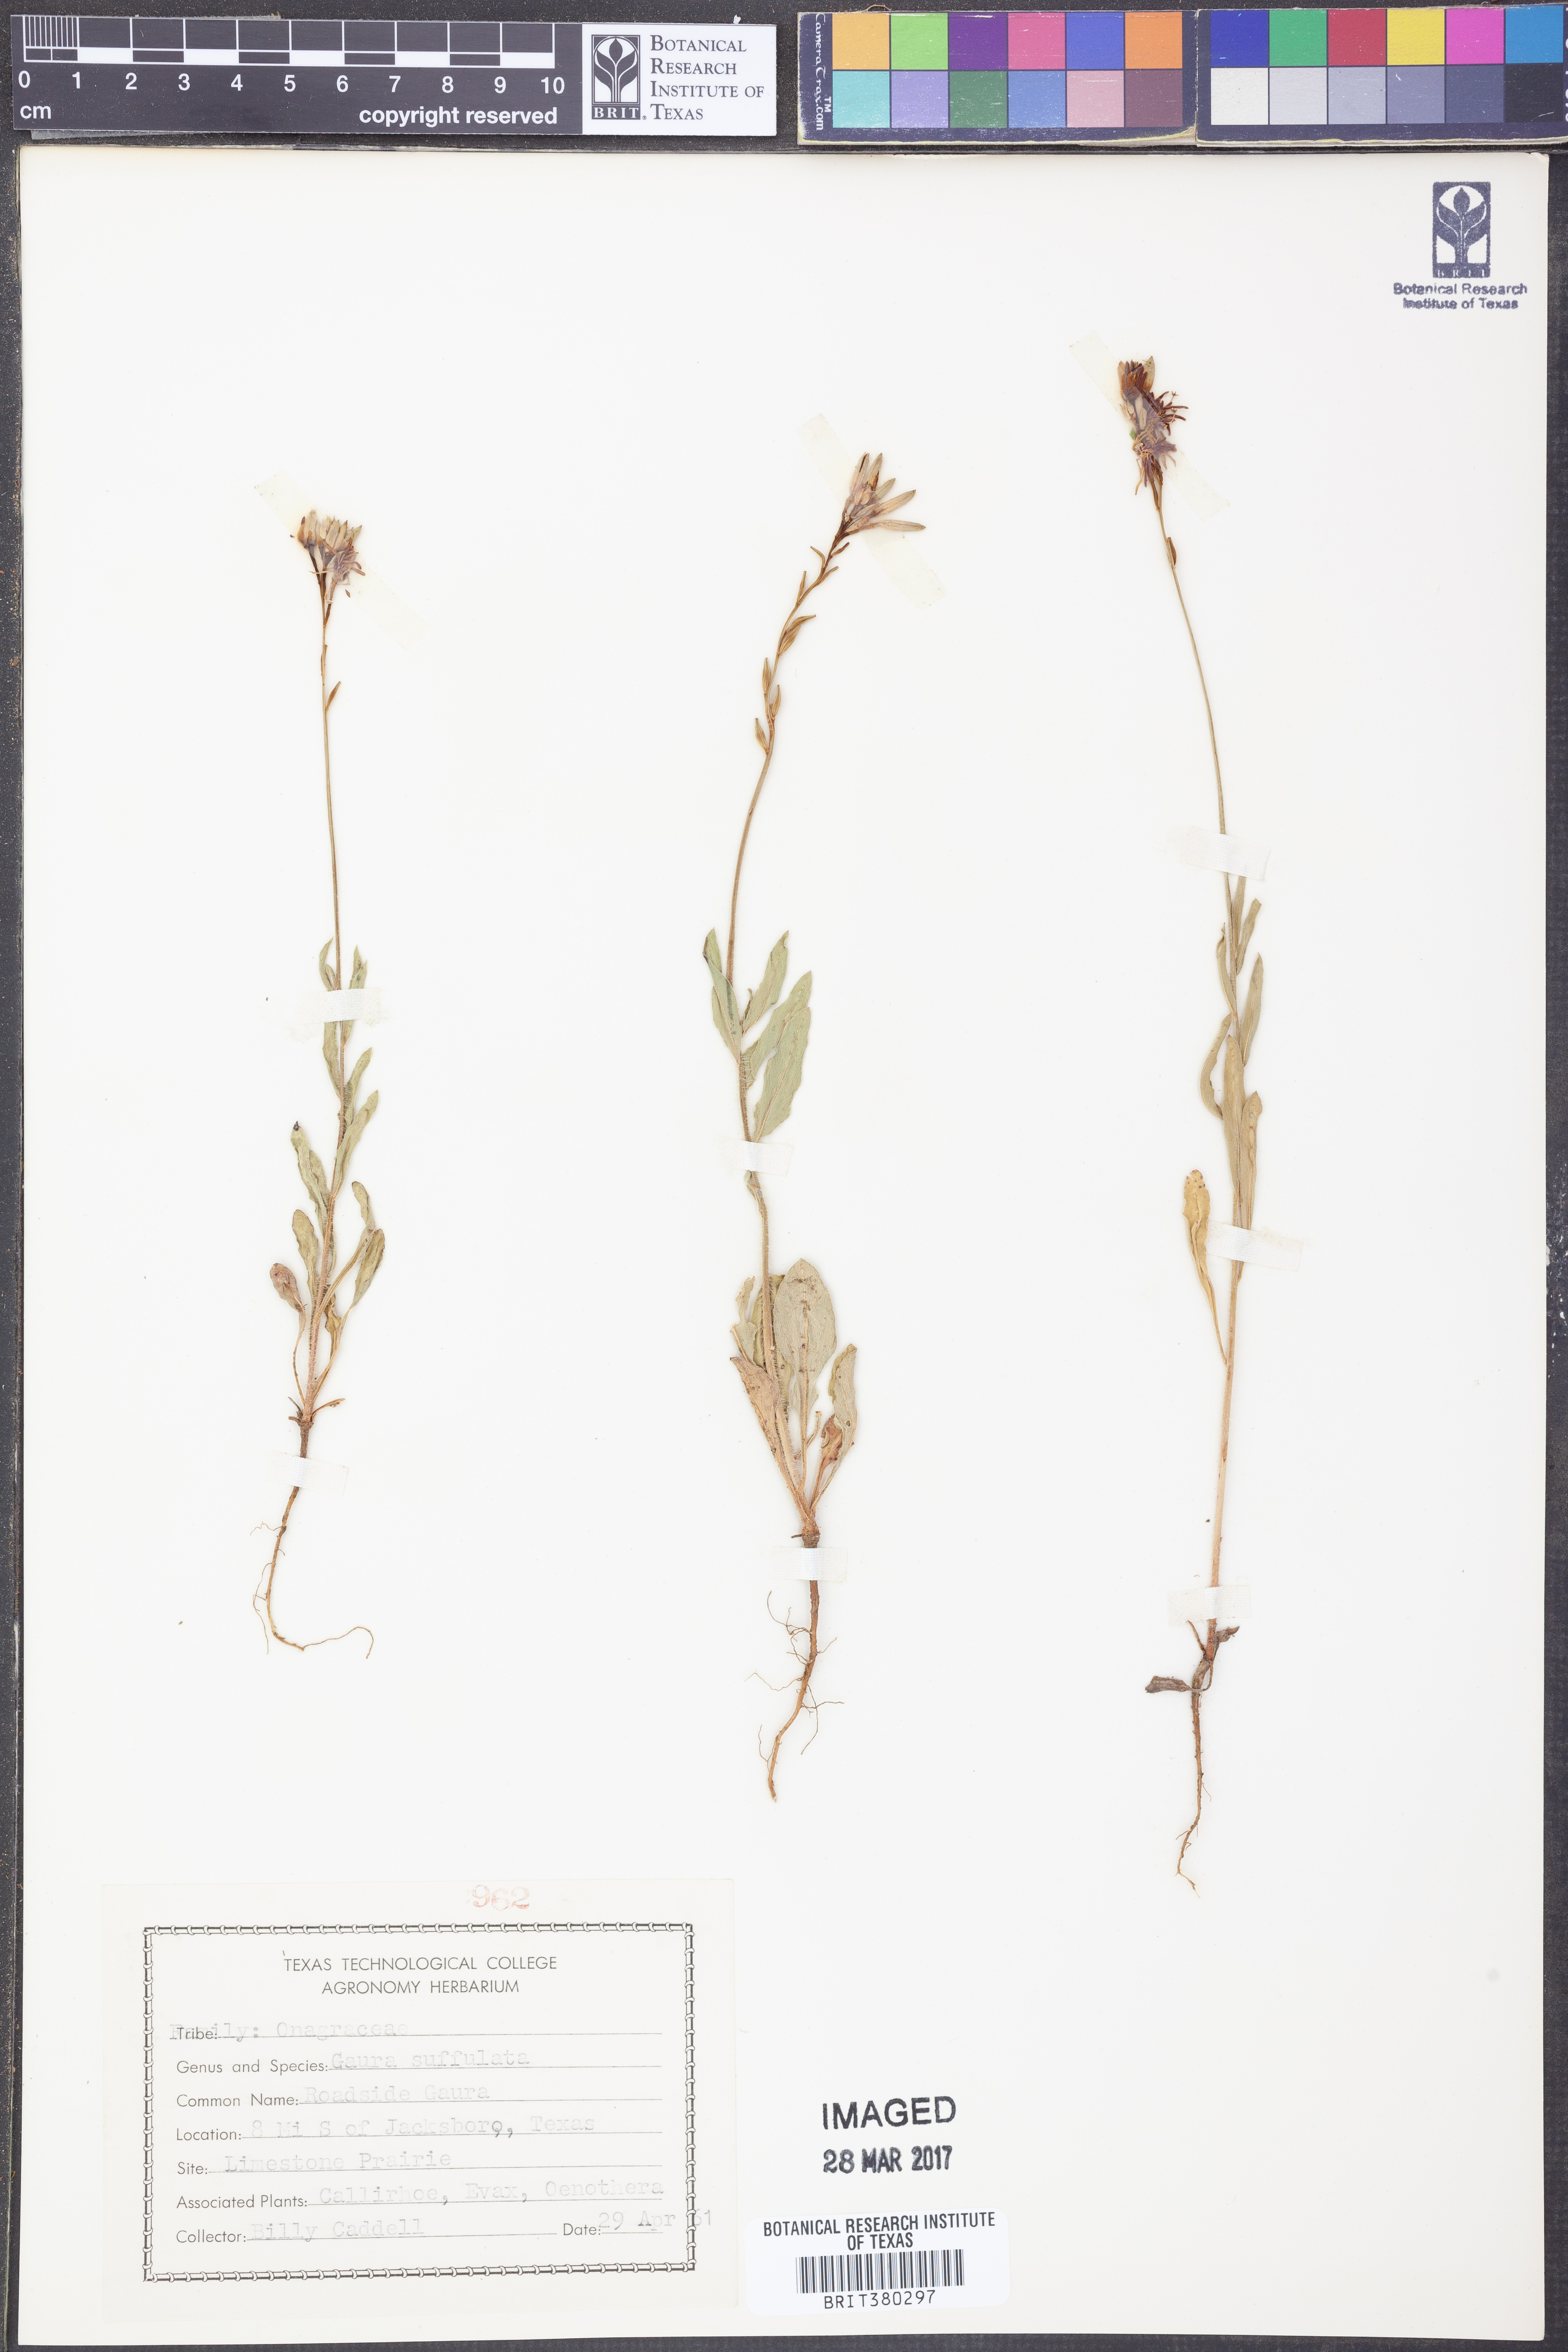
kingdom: Plantae
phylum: Tracheophyta
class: Magnoliopsida
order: Myrtales
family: Onagraceae
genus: Oenothera
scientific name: Oenothera Gaura suffulta
